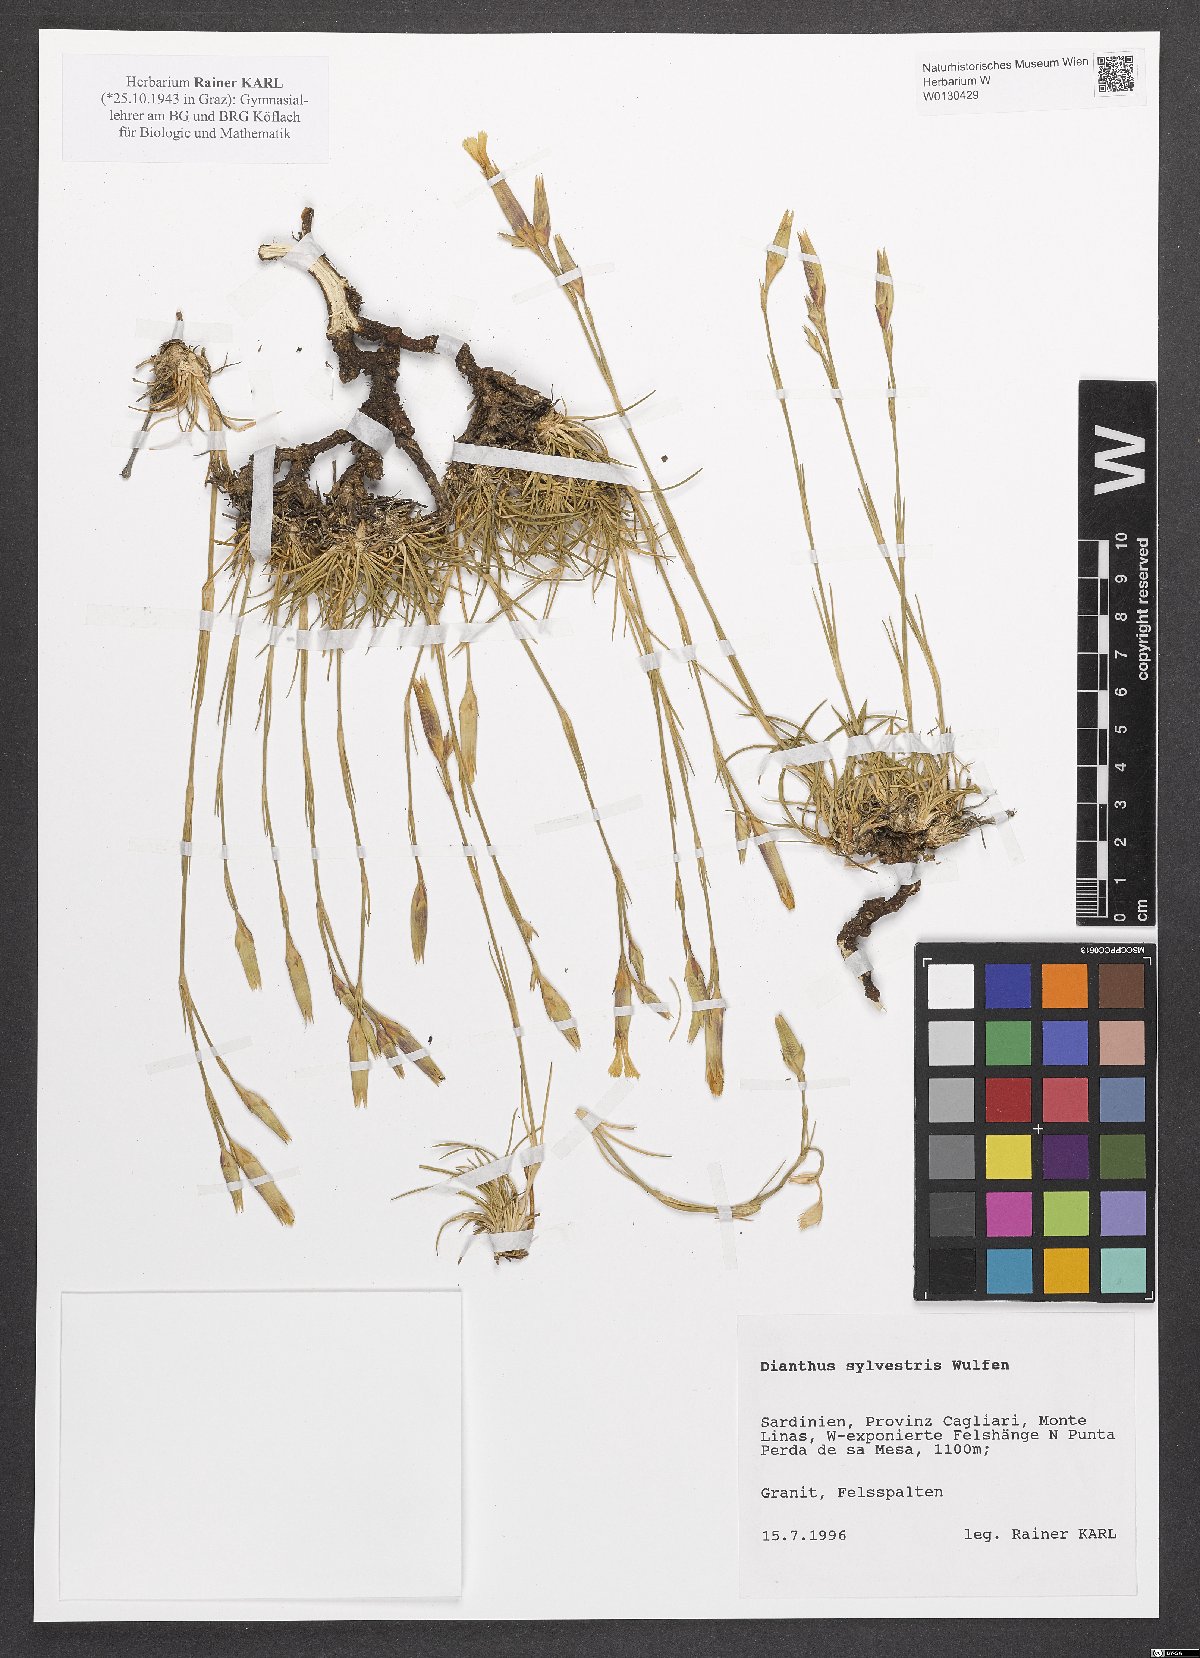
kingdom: Plantae
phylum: Tracheophyta
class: Magnoliopsida
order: Caryophyllales
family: Caryophyllaceae
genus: Dianthus
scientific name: Dianthus sylvestris
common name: Wood pink
